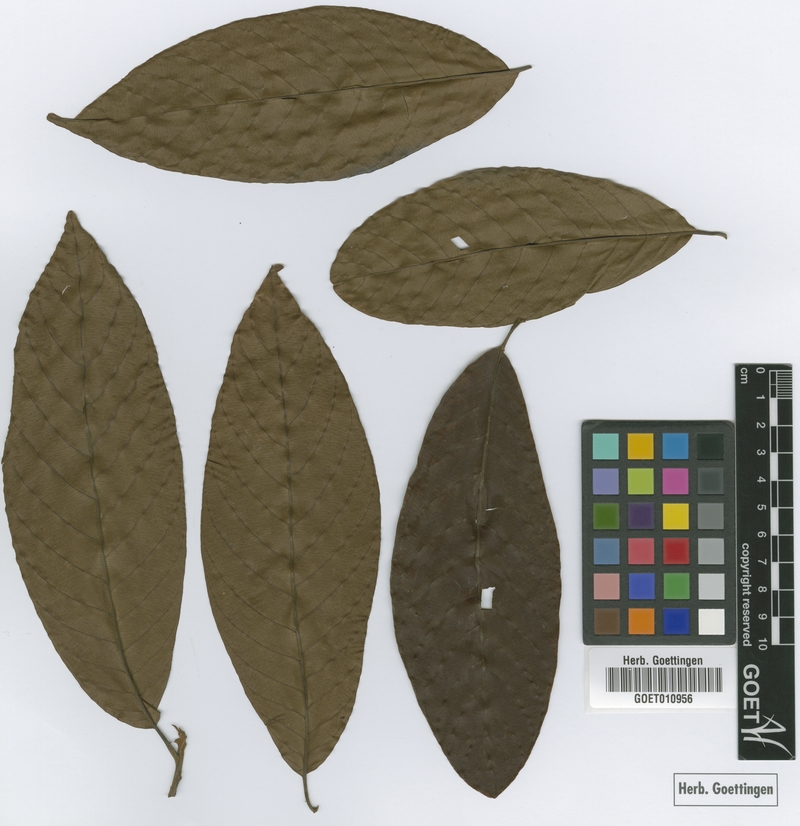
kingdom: Plantae
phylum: Tracheophyta
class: Magnoliopsida
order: Ericales
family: Sapotaceae
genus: Pradosia
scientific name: Pradosia grisebachii
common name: Grisebach pradosia
